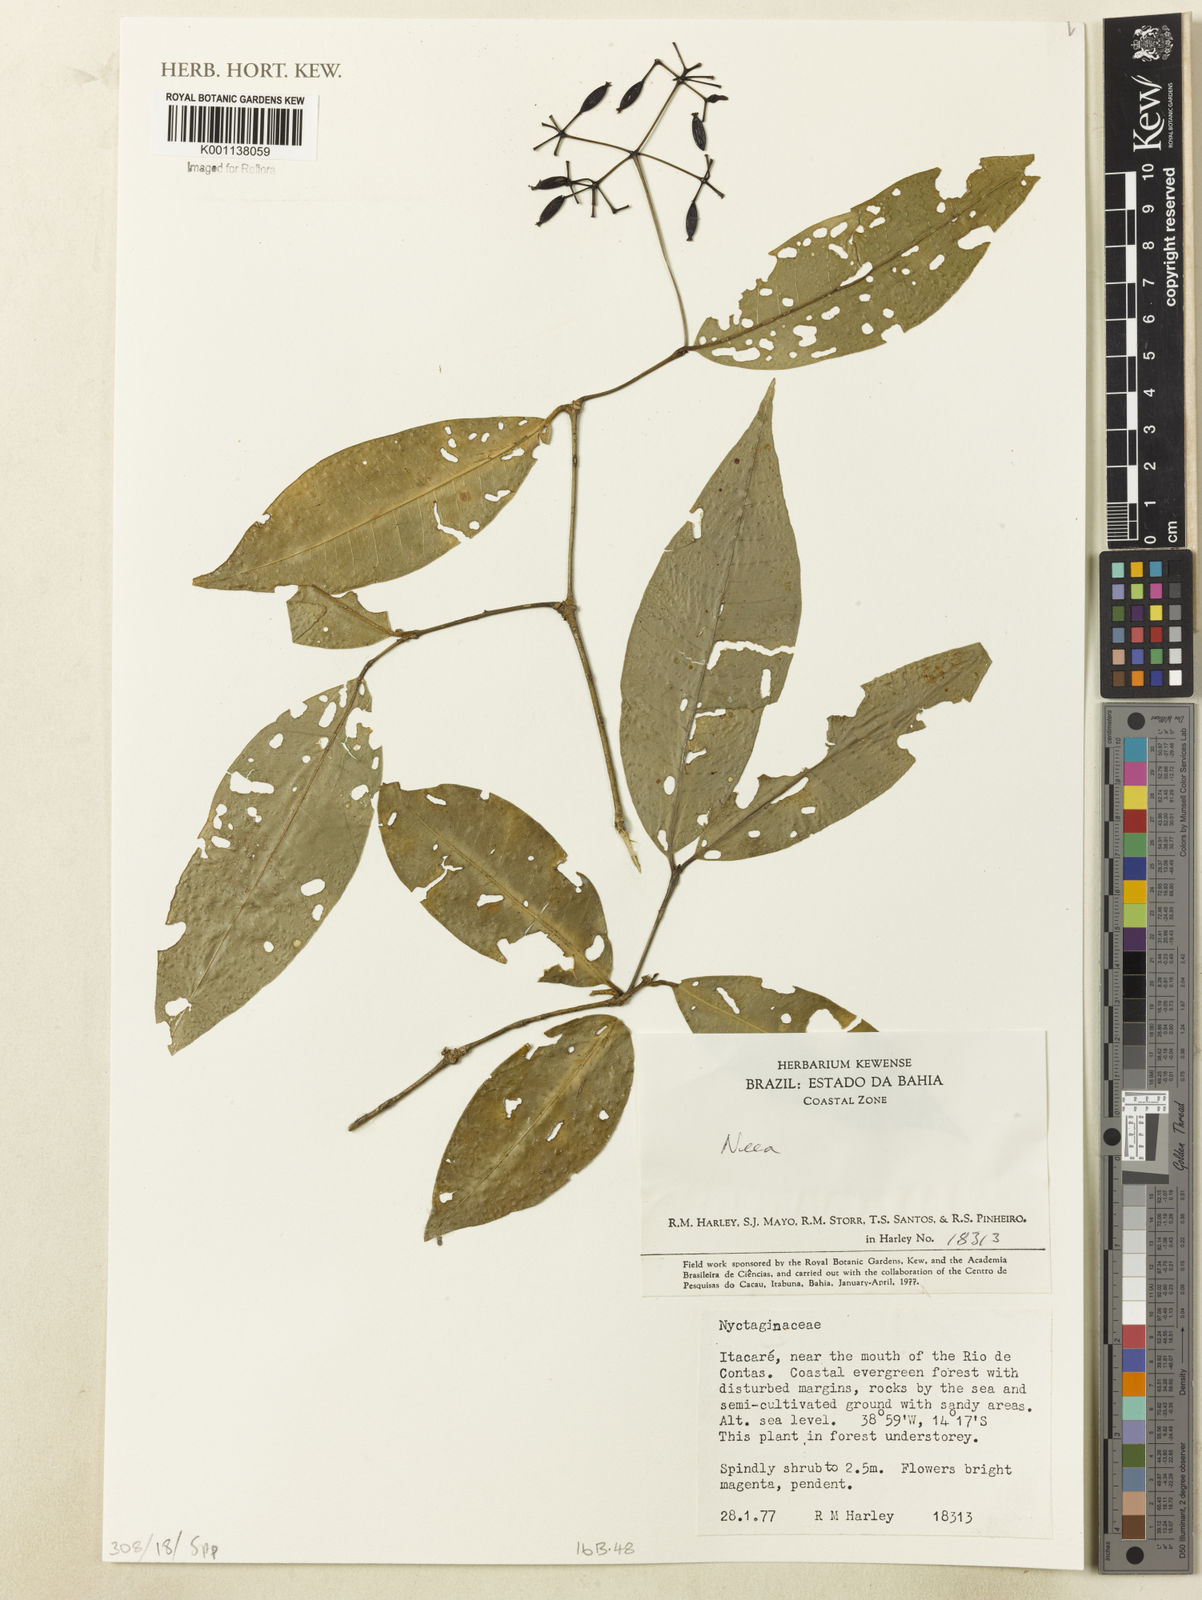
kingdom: Plantae
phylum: Tracheophyta
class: Magnoliopsida
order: Caryophyllales
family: Nyctaginaceae
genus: Neea
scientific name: Neea
